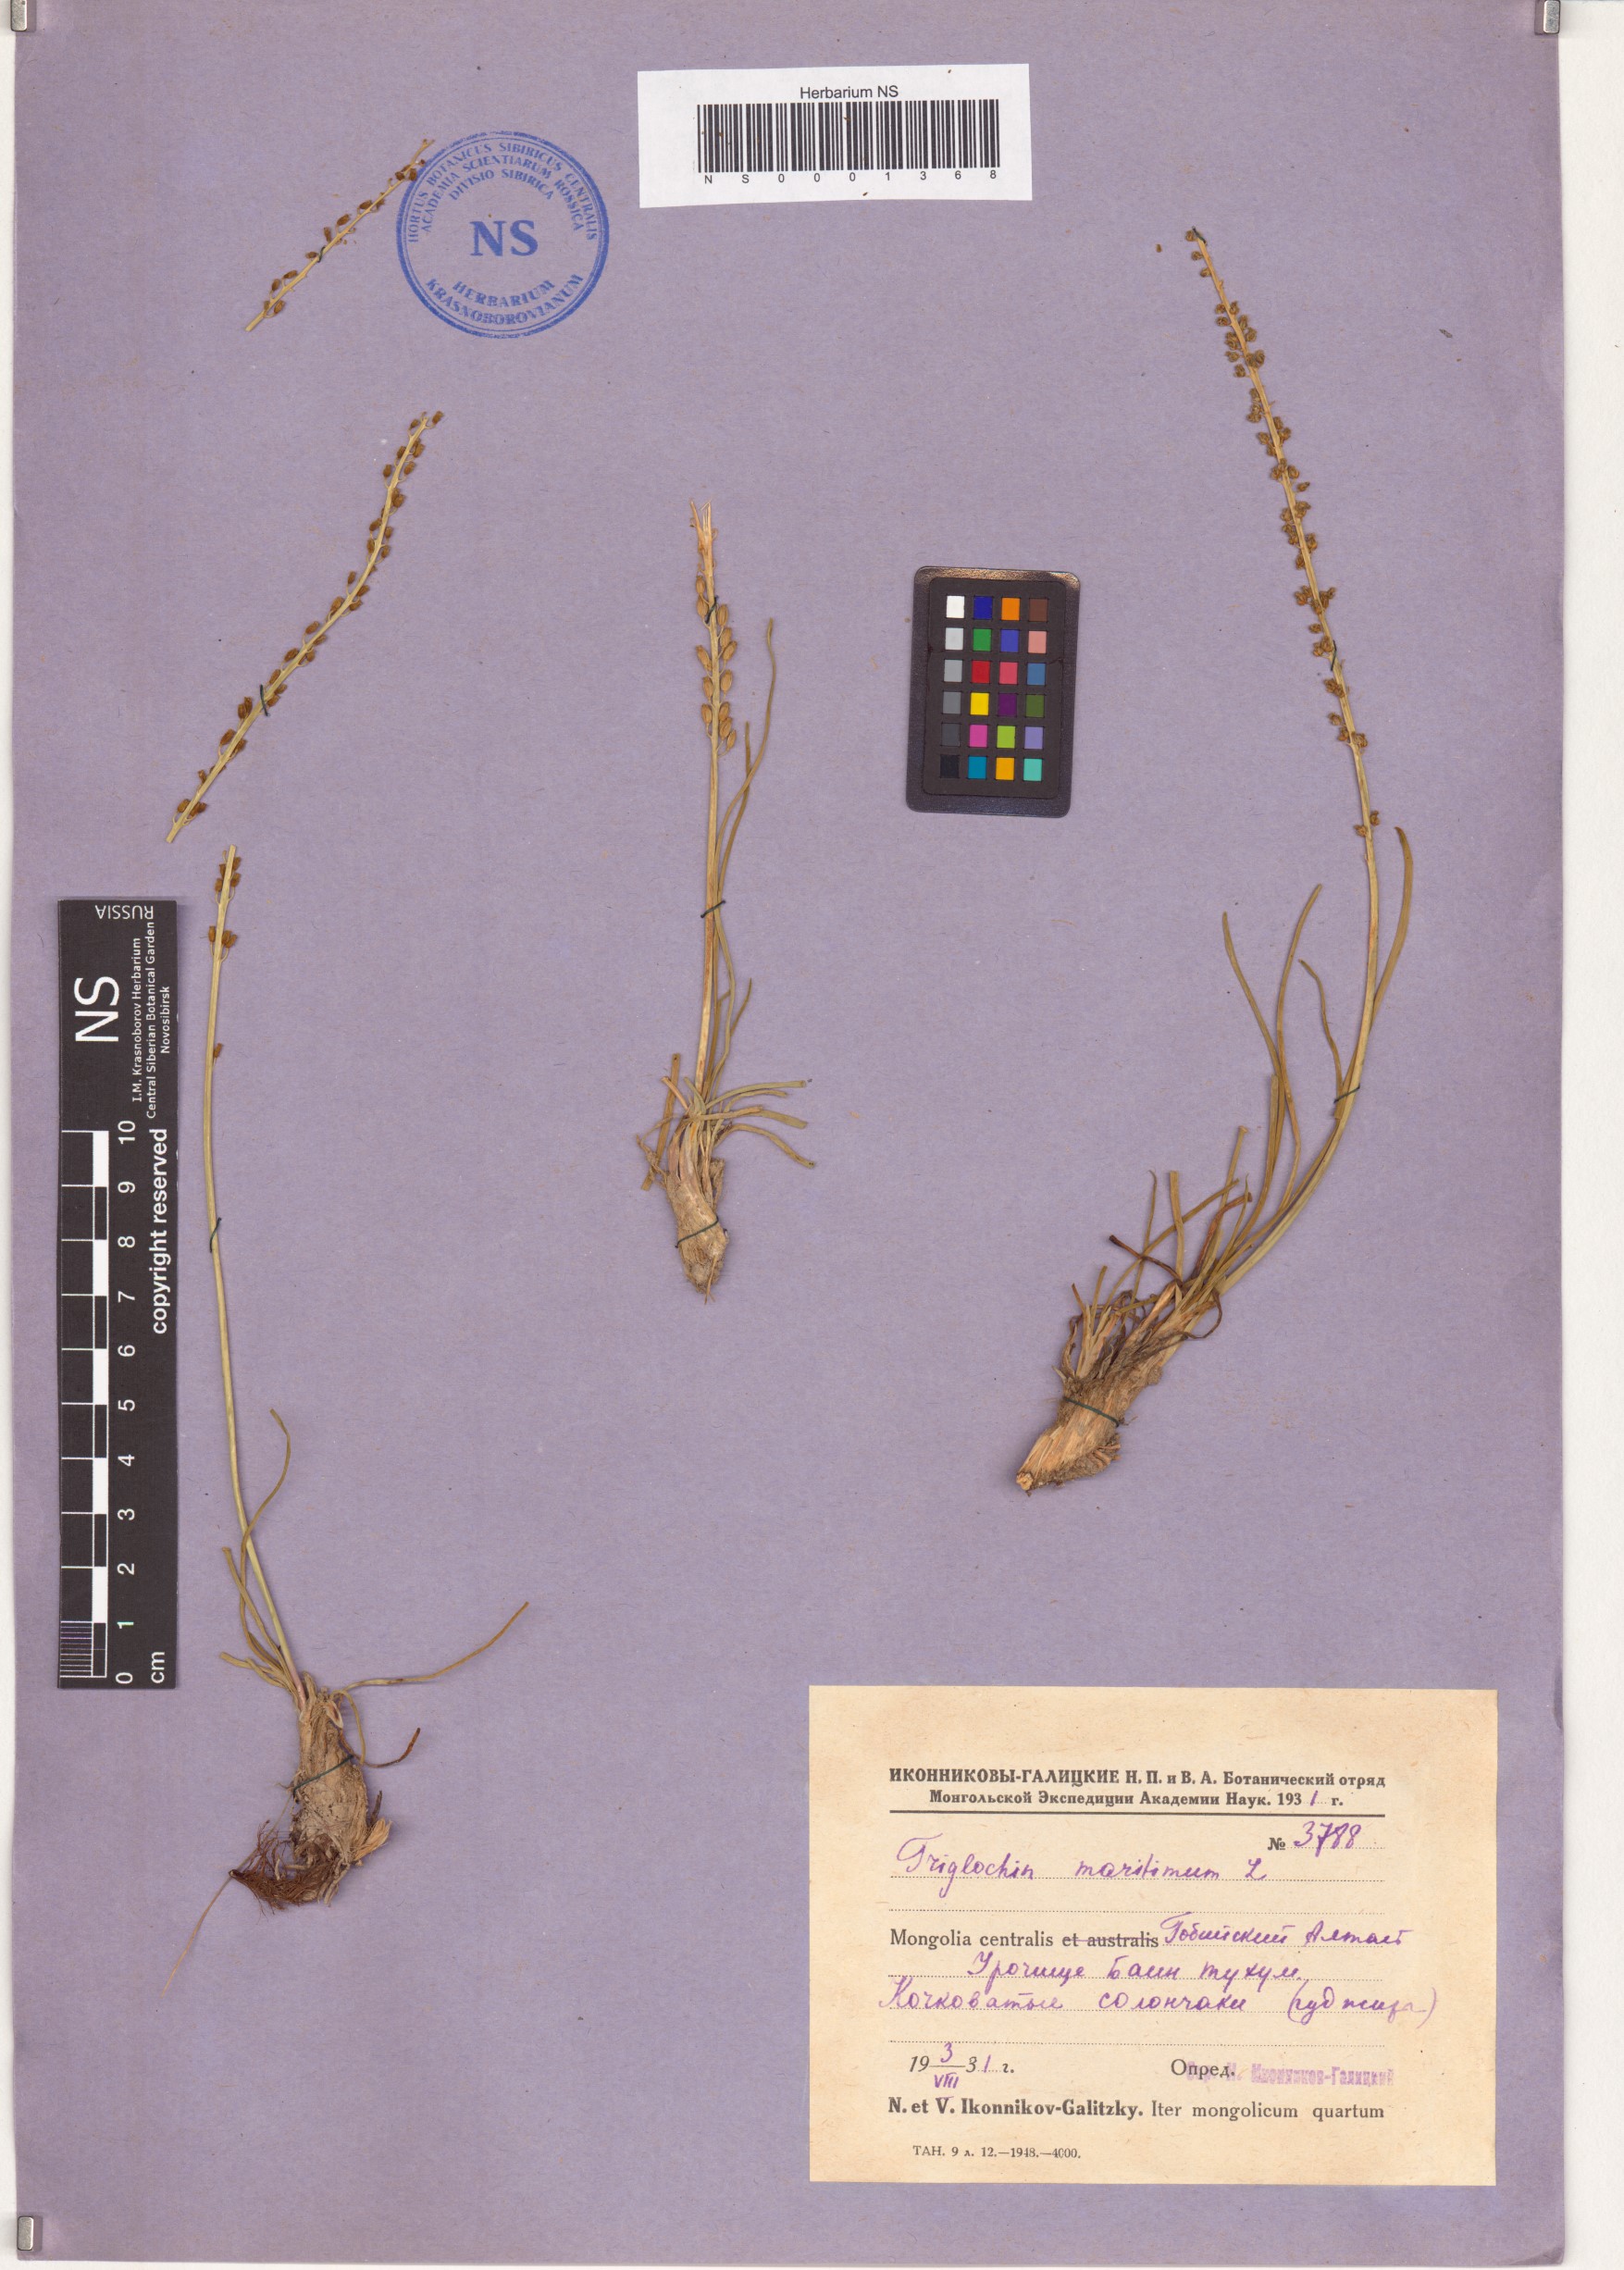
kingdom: Plantae
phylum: Tracheophyta
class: Liliopsida
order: Alismatales
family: Juncaginaceae
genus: Triglochin
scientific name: Triglochin maritima
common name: Sea arrowgrass
